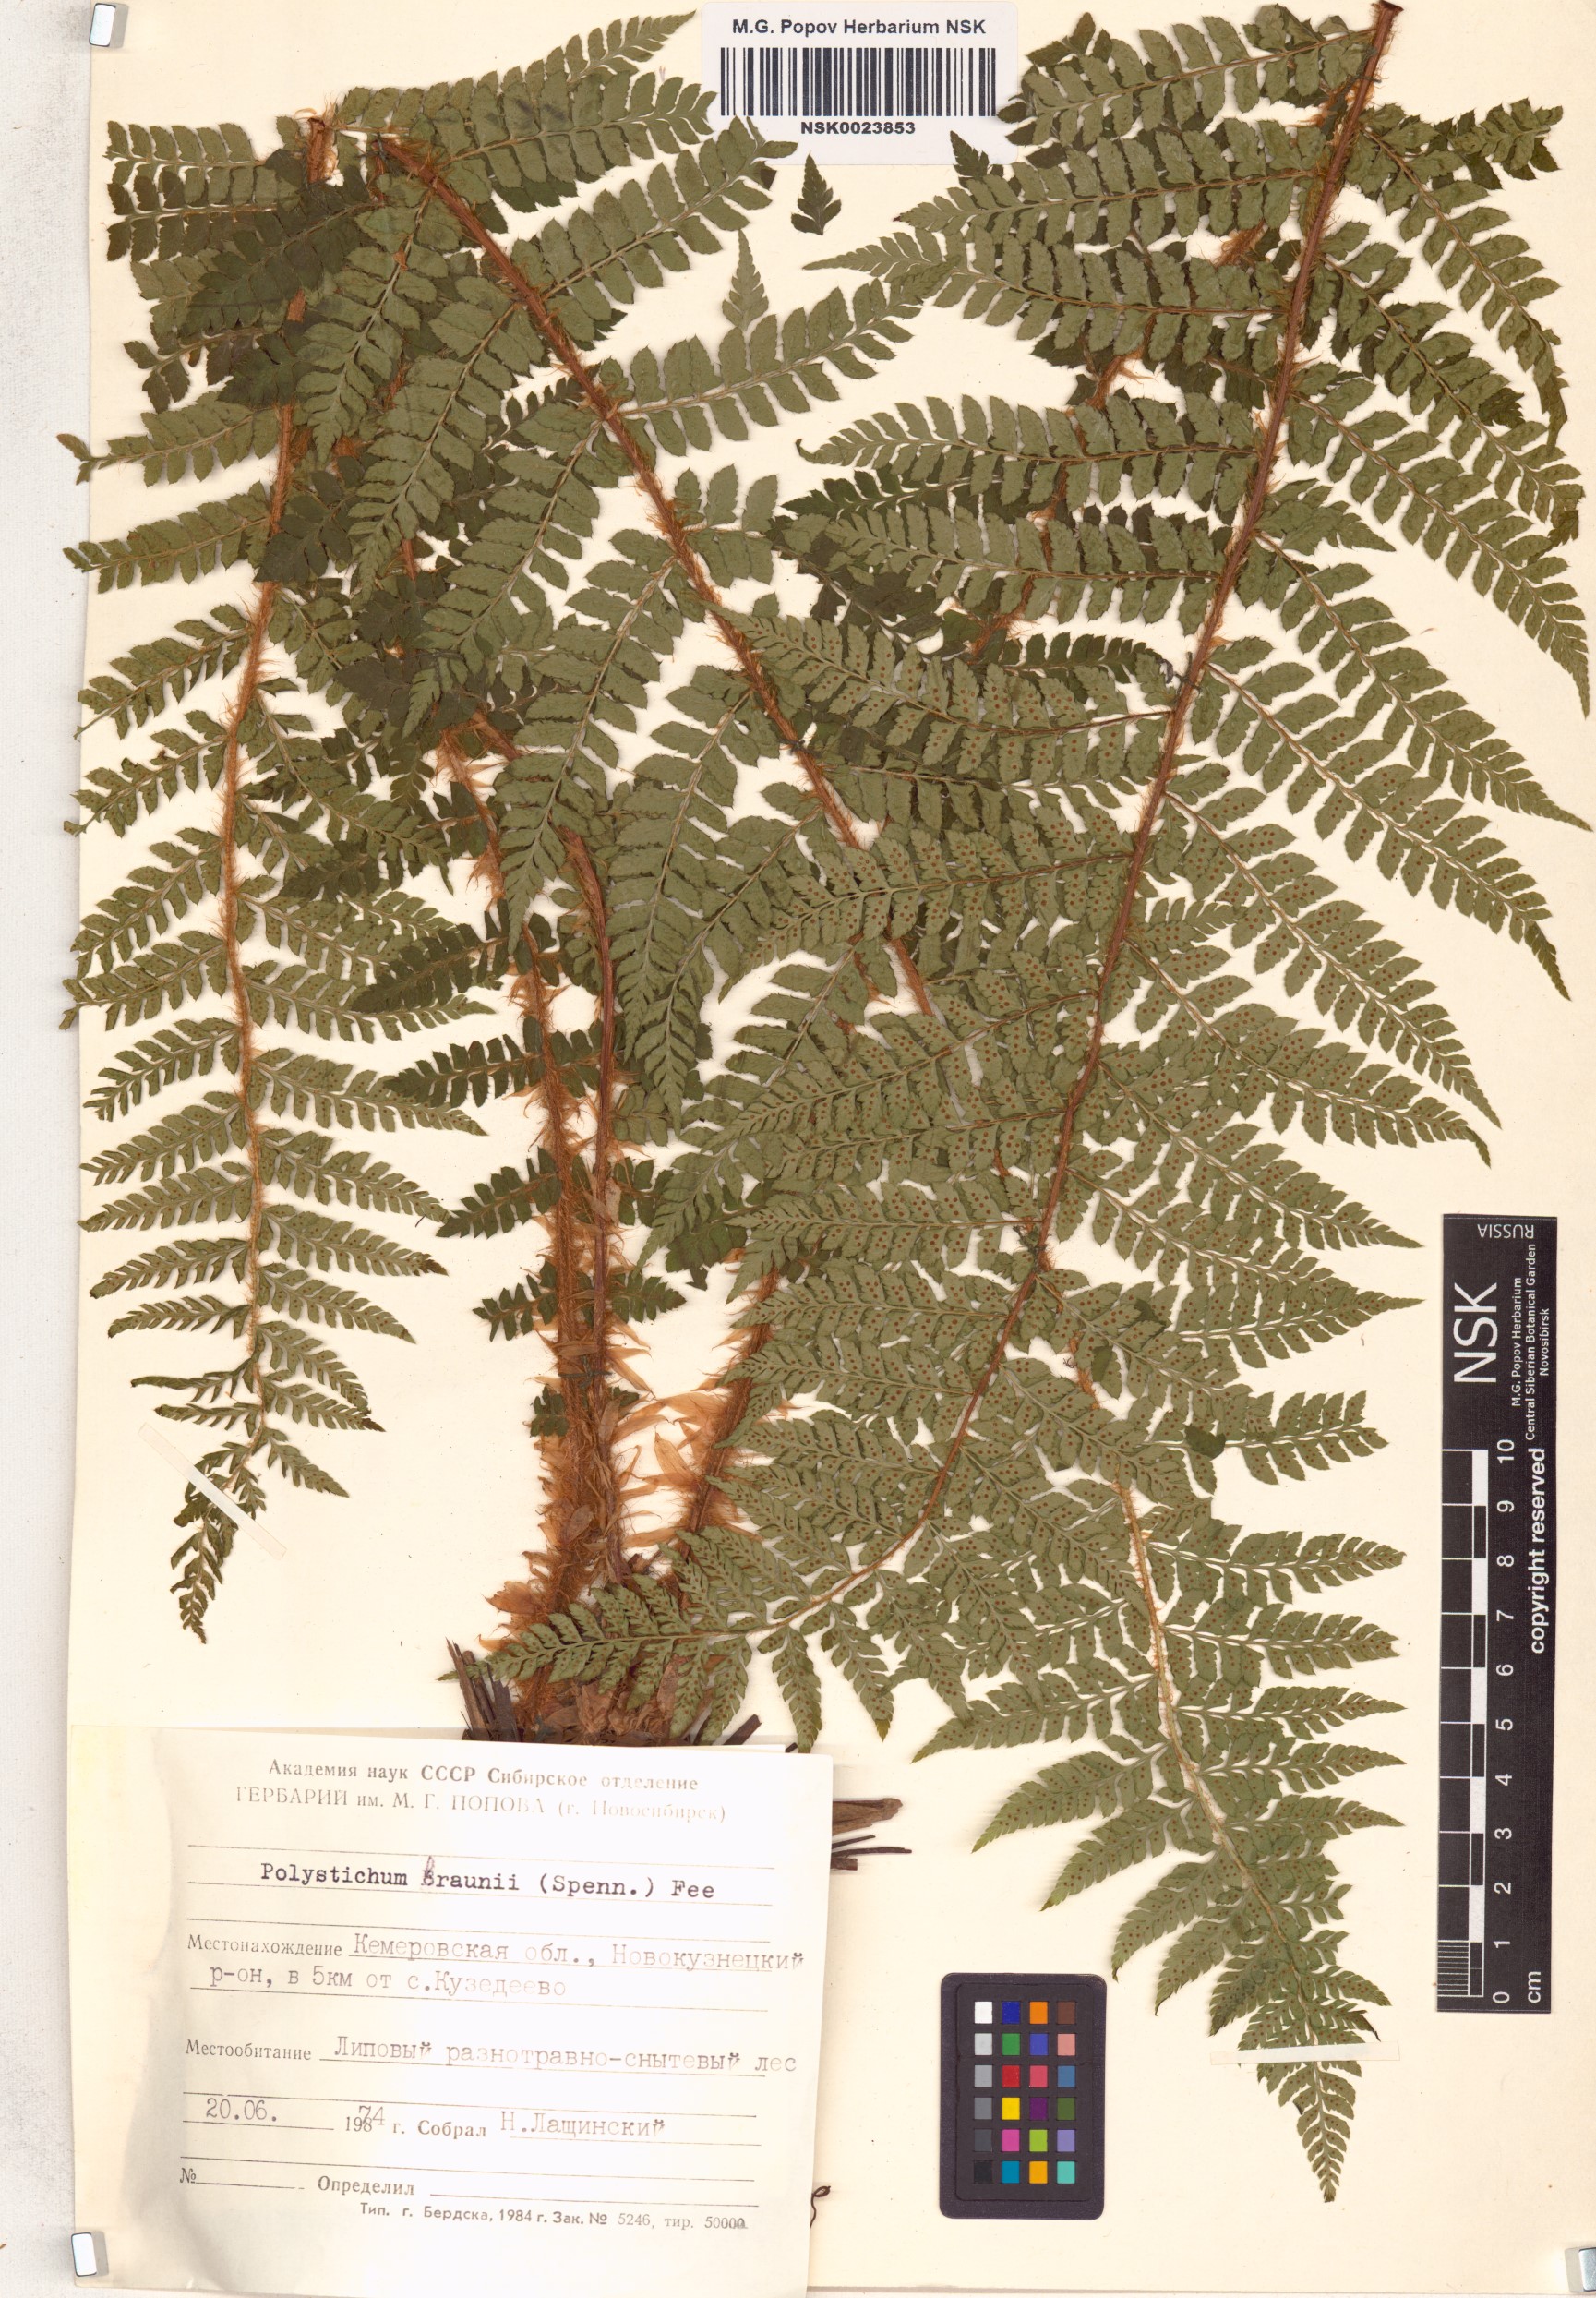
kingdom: Plantae
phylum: Tracheophyta
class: Polypodiopsida
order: Polypodiales
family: Dryopteridaceae
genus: Polystichum
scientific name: Polystichum braunii
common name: Braun's holly fern
